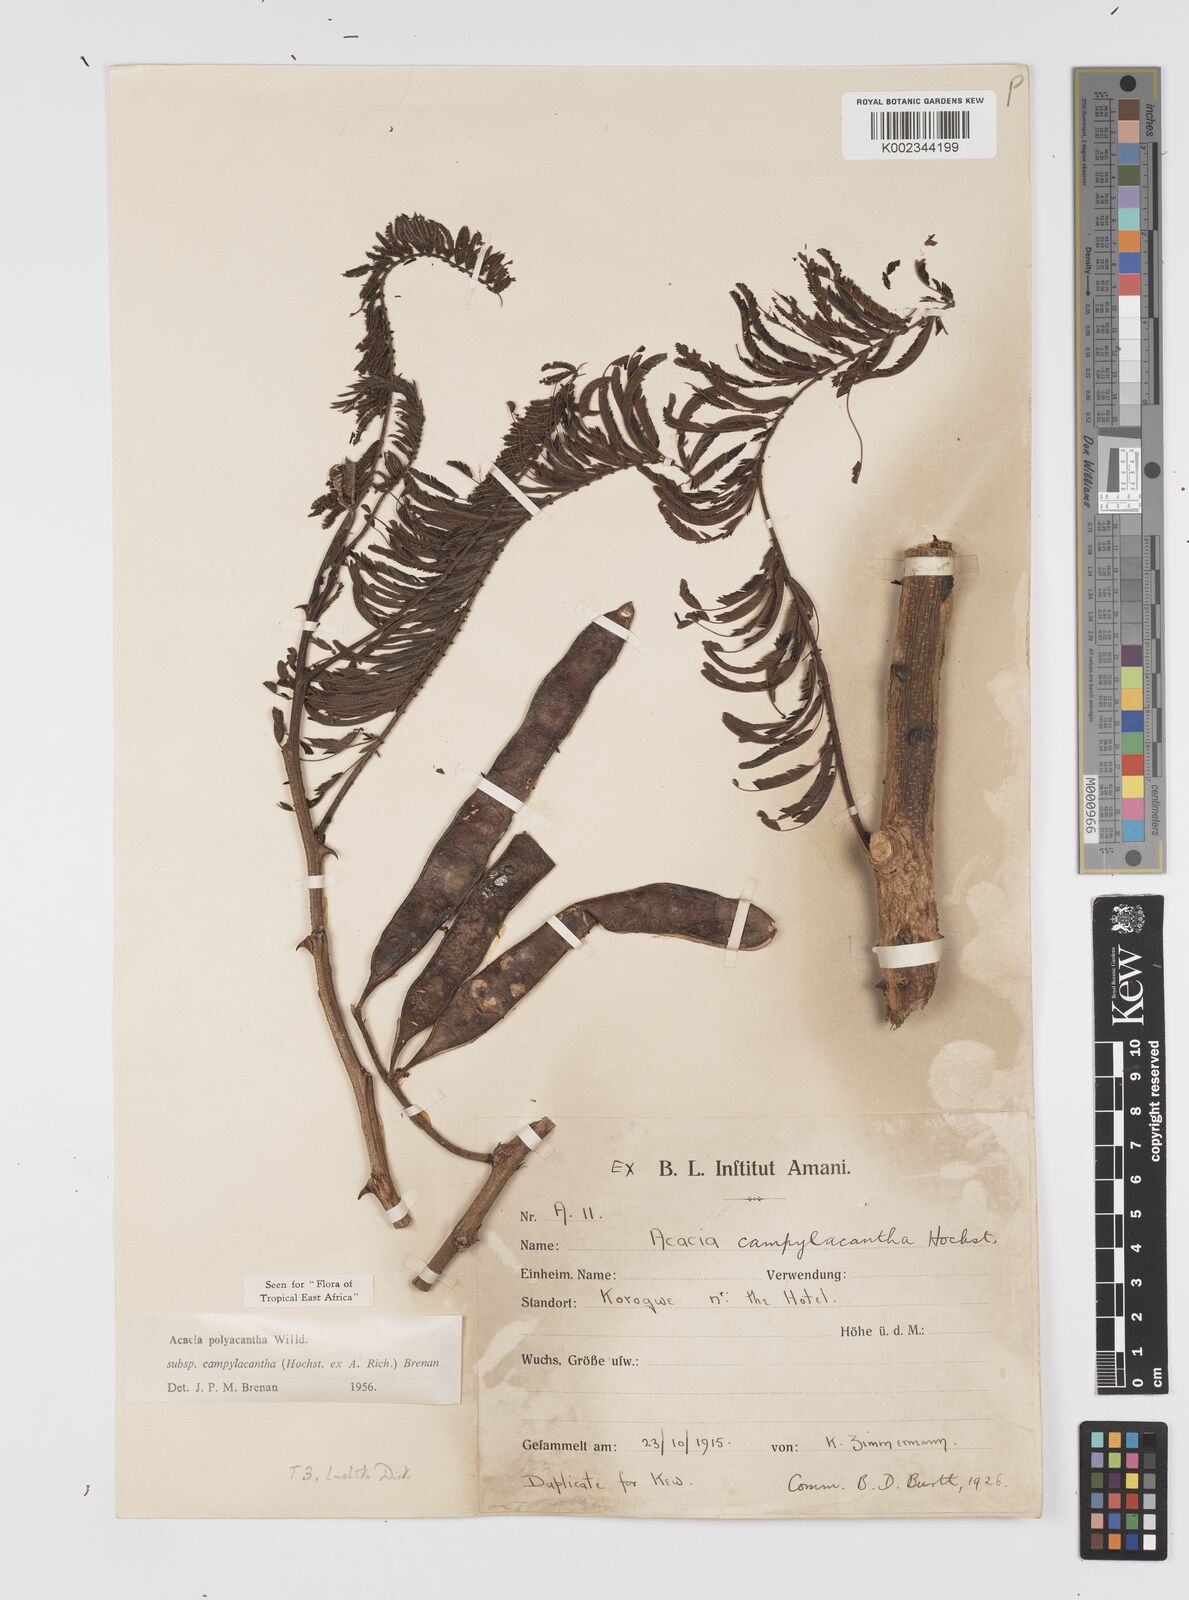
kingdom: Plantae
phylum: Tracheophyta
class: Magnoliopsida
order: Fabales
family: Fabaceae
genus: Senegalia
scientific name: Senegalia polyacantha
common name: Whitethorn
